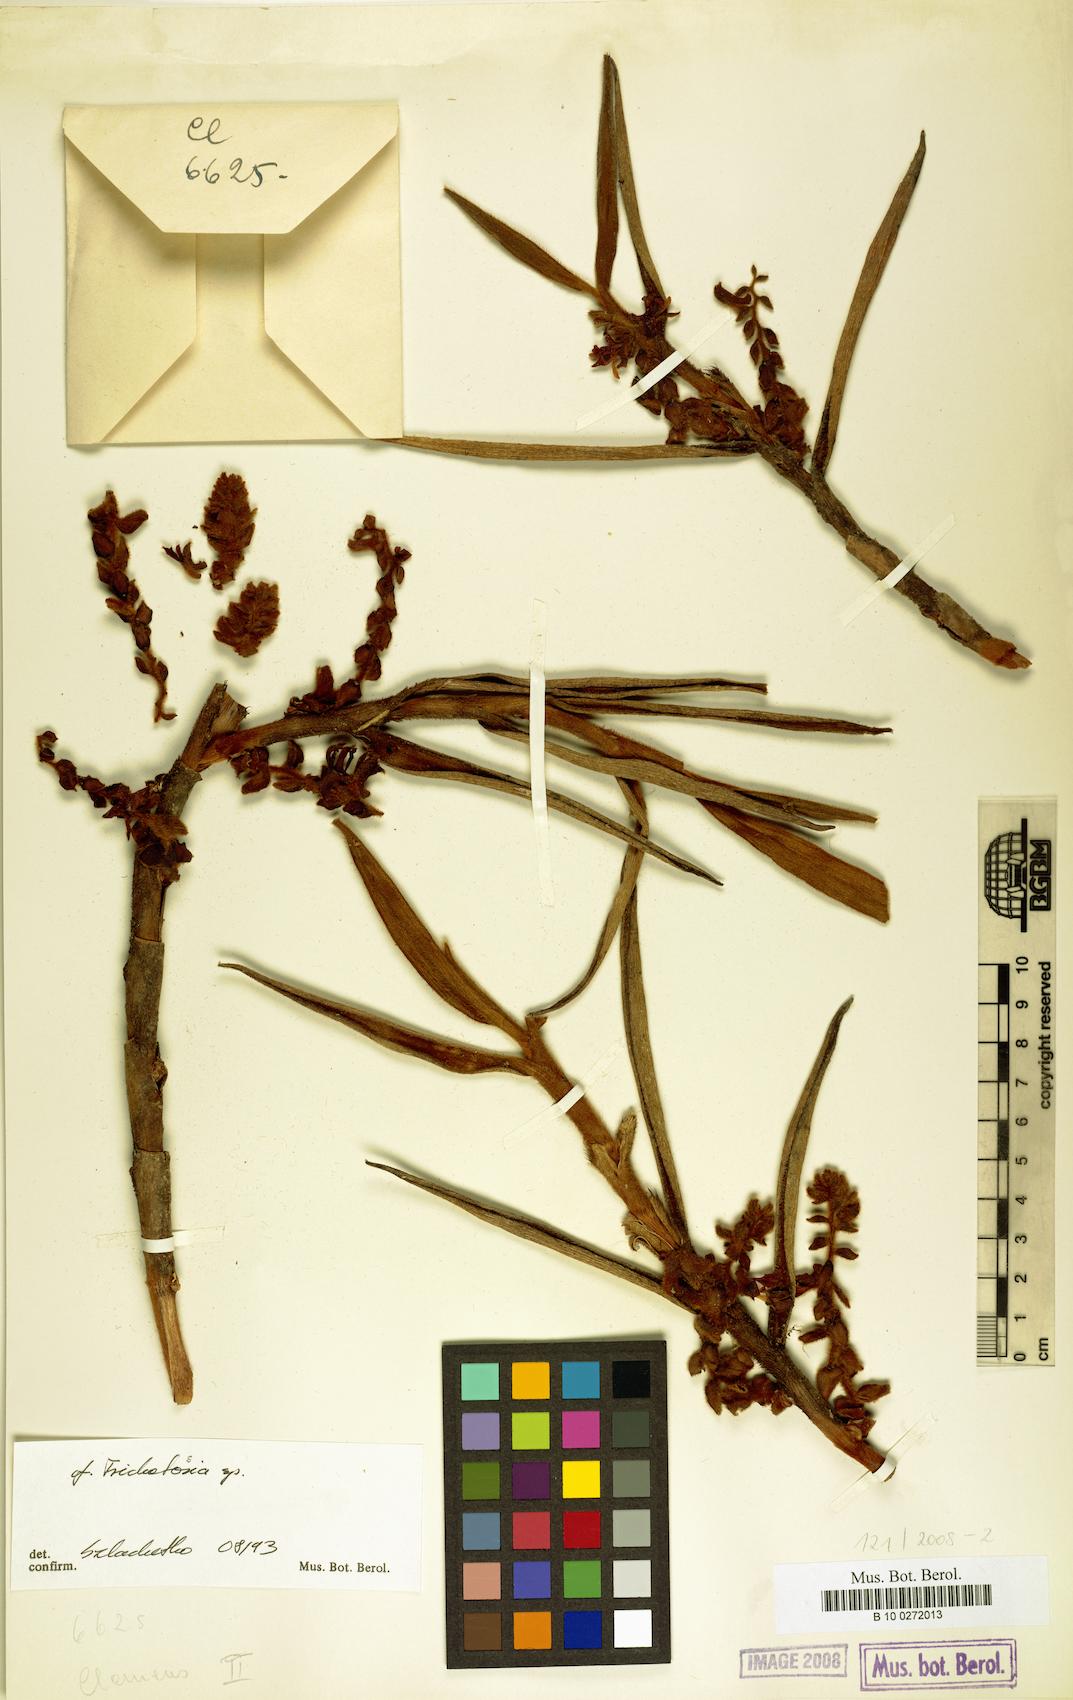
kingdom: Plantae
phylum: Tracheophyta
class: Liliopsida
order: Asparagales
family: Orchidaceae
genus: Trichotosia
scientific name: Trichotosia
